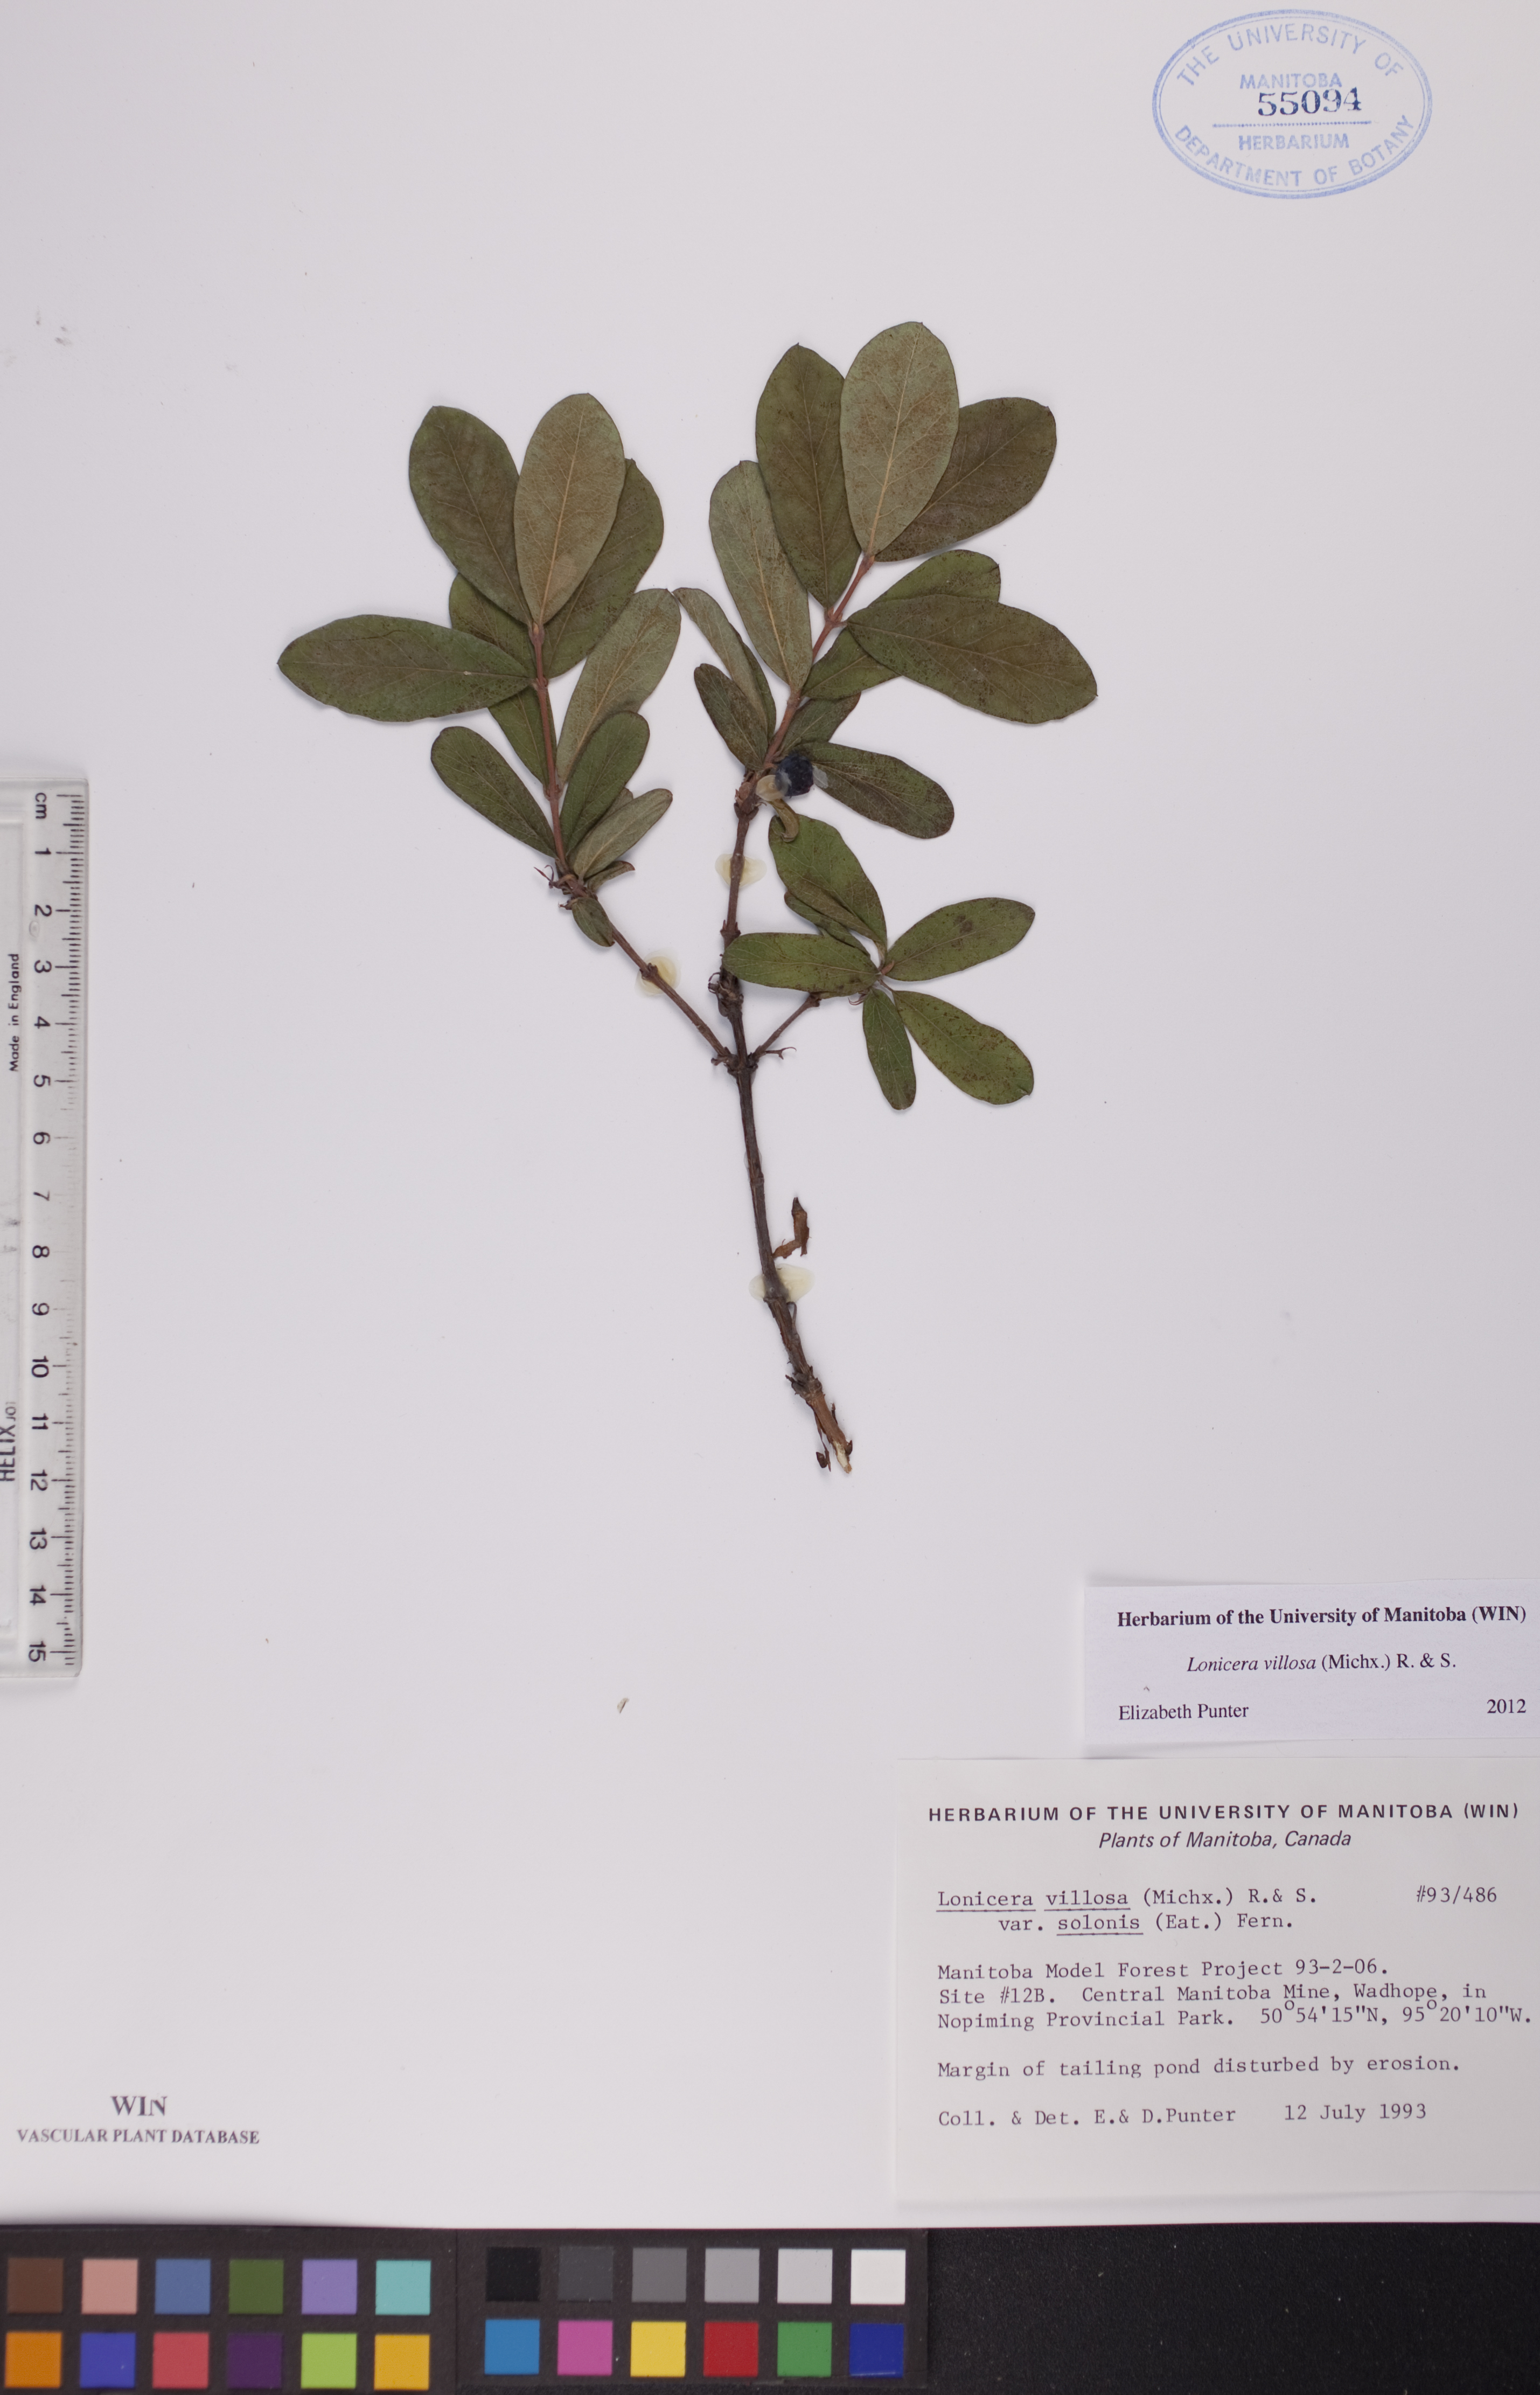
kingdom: Plantae
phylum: Tracheophyta
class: Magnoliopsida
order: Dipsacales
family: Caprifoliaceae
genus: Lonicera
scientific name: Lonicera villosa
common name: Mountain fly-honeysuckle
